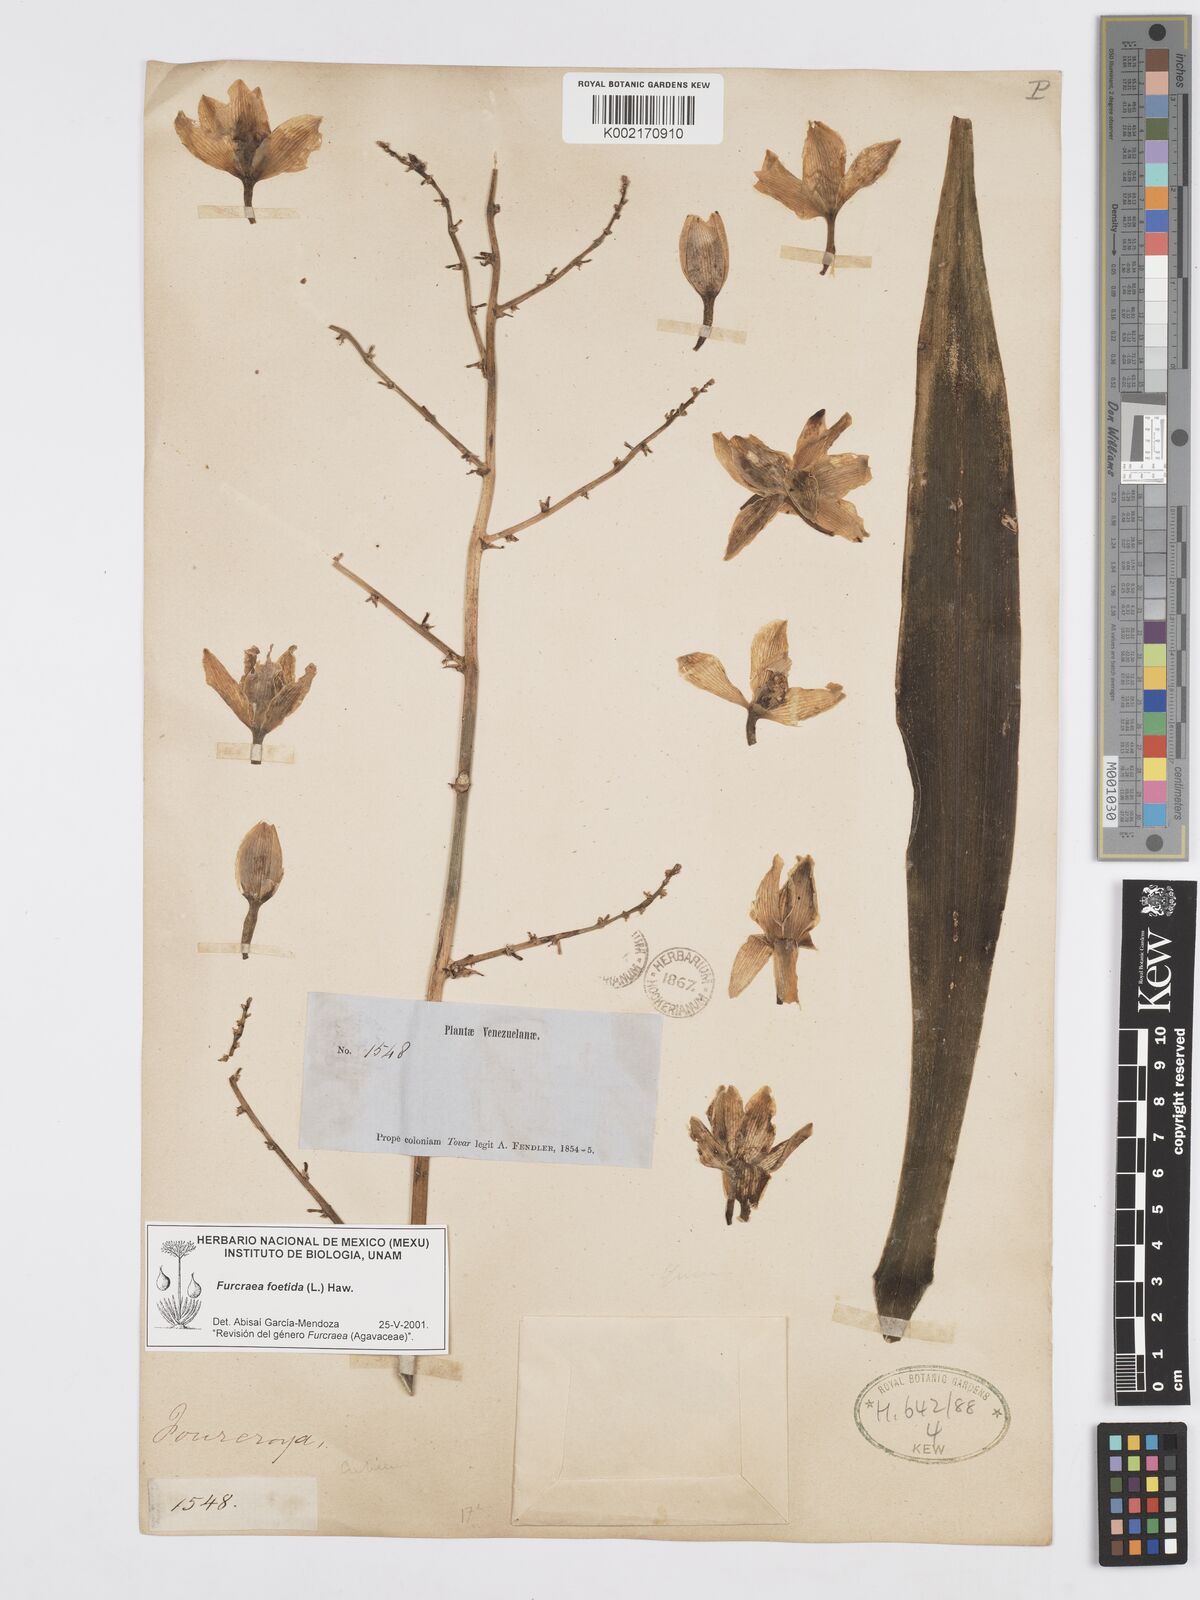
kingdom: Plantae
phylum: Tracheophyta
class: Liliopsida
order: Asparagales
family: Asparagaceae
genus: Furcraea
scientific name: Furcraea foetida
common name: Mauritius hemp
